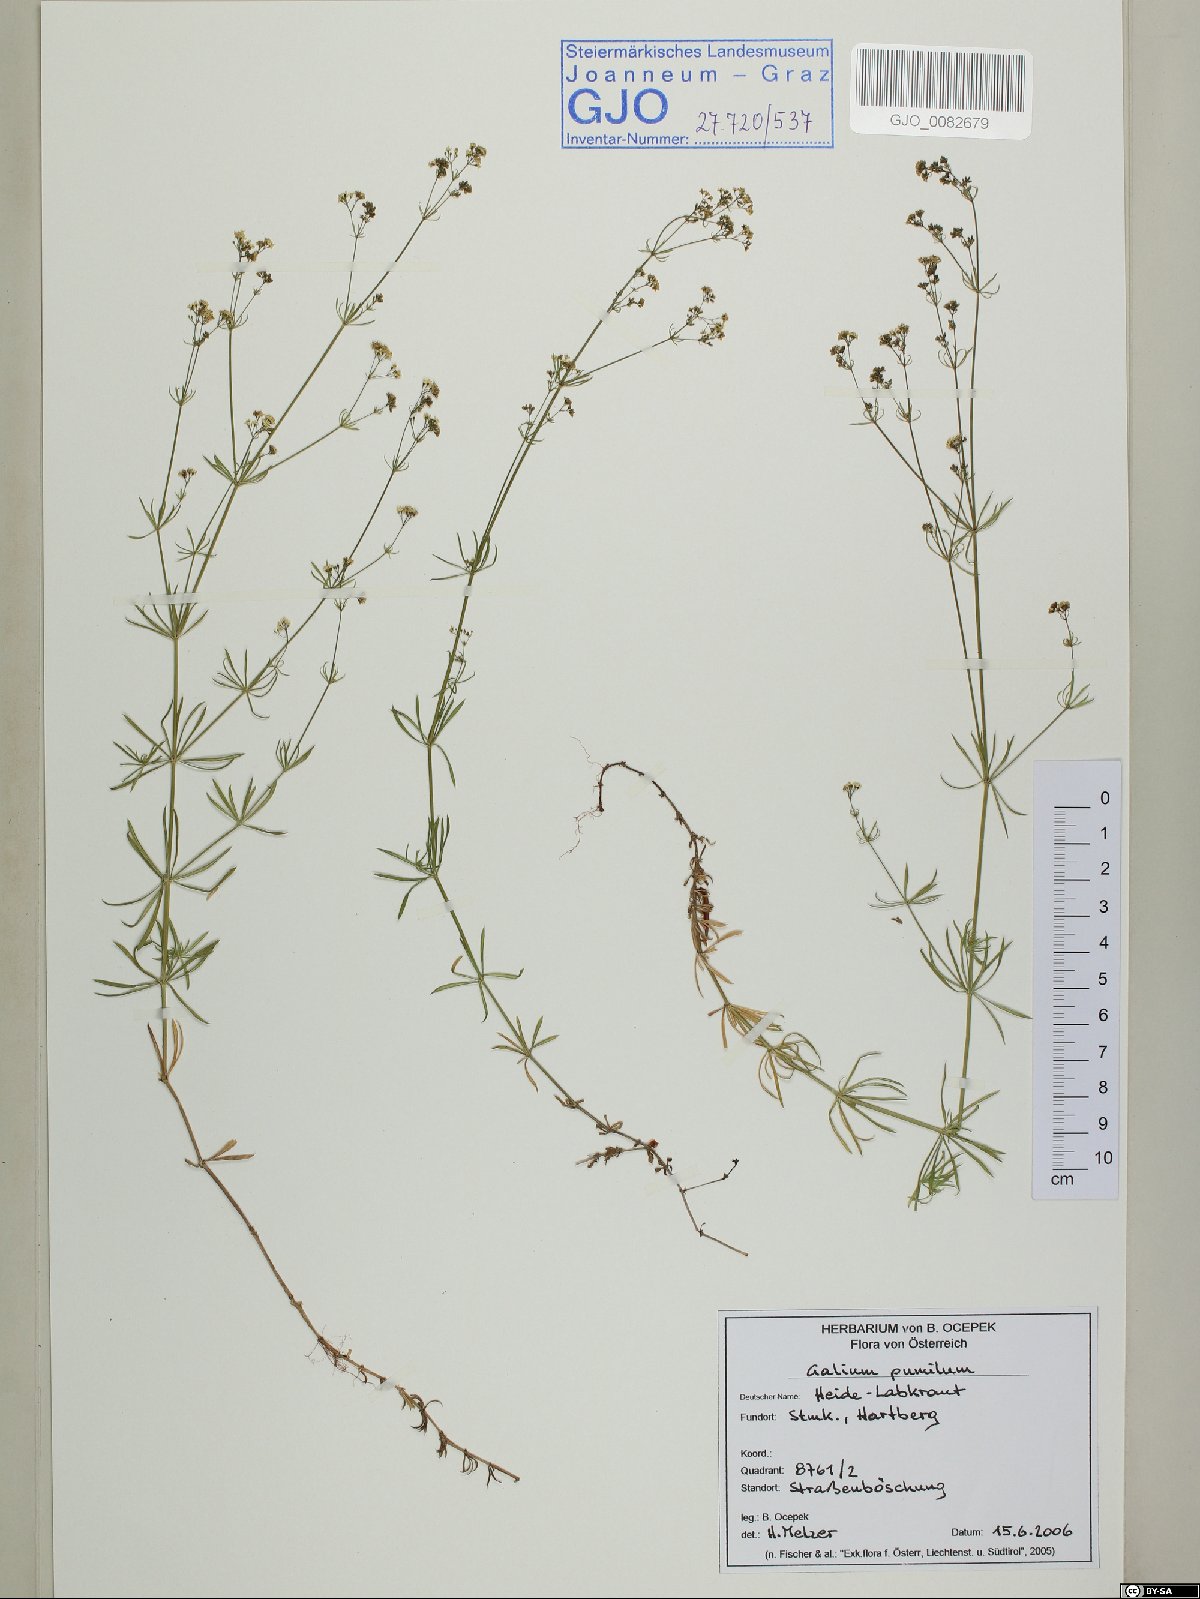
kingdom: Plantae
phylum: Tracheophyta
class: Magnoliopsida
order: Gentianales
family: Rubiaceae
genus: Galium
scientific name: Galium pumilum
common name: Slender bedstraw
